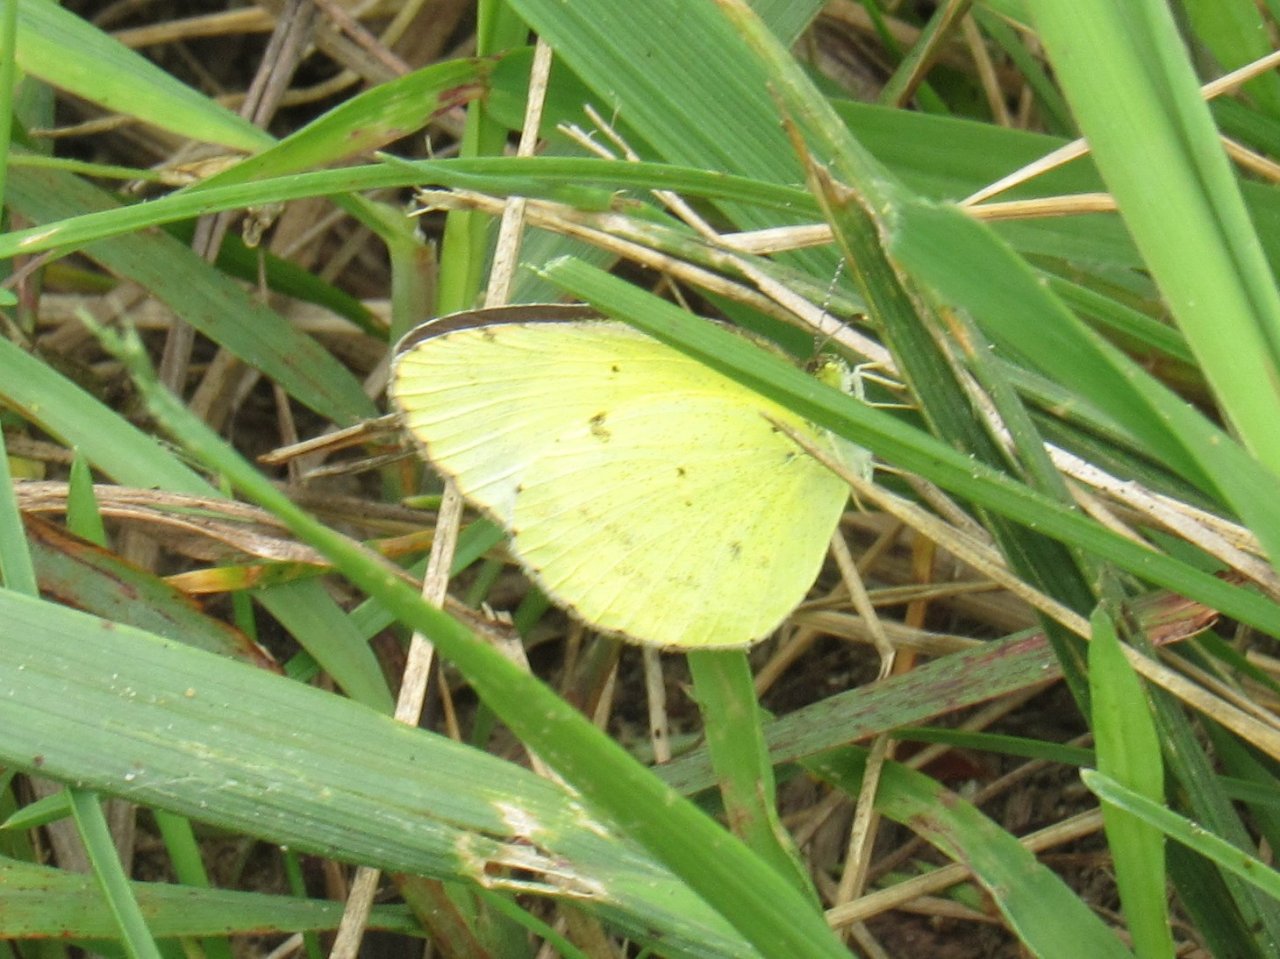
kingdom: Animalia
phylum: Arthropoda
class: Insecta
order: Lepidoptera
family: Pieridae
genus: Pyrisitia
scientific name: Pyrisitia lisa
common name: Little Yellow
